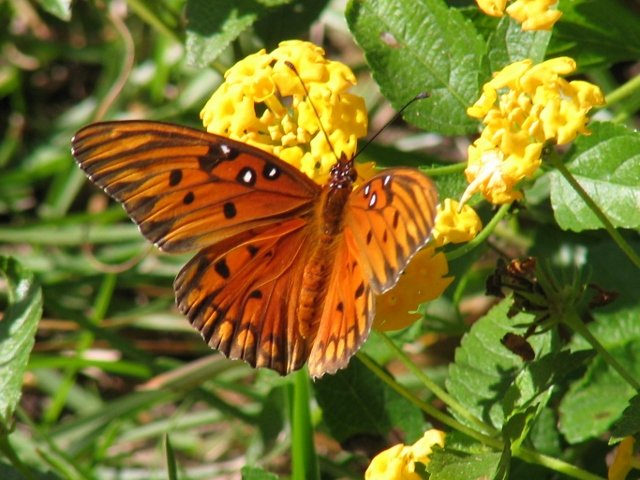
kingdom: Animalia
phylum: Arthropoda
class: Insecta
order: Lepidoptera
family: Nymphalidae
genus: Dione
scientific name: Dione vanillae
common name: Gulf Fritillary
